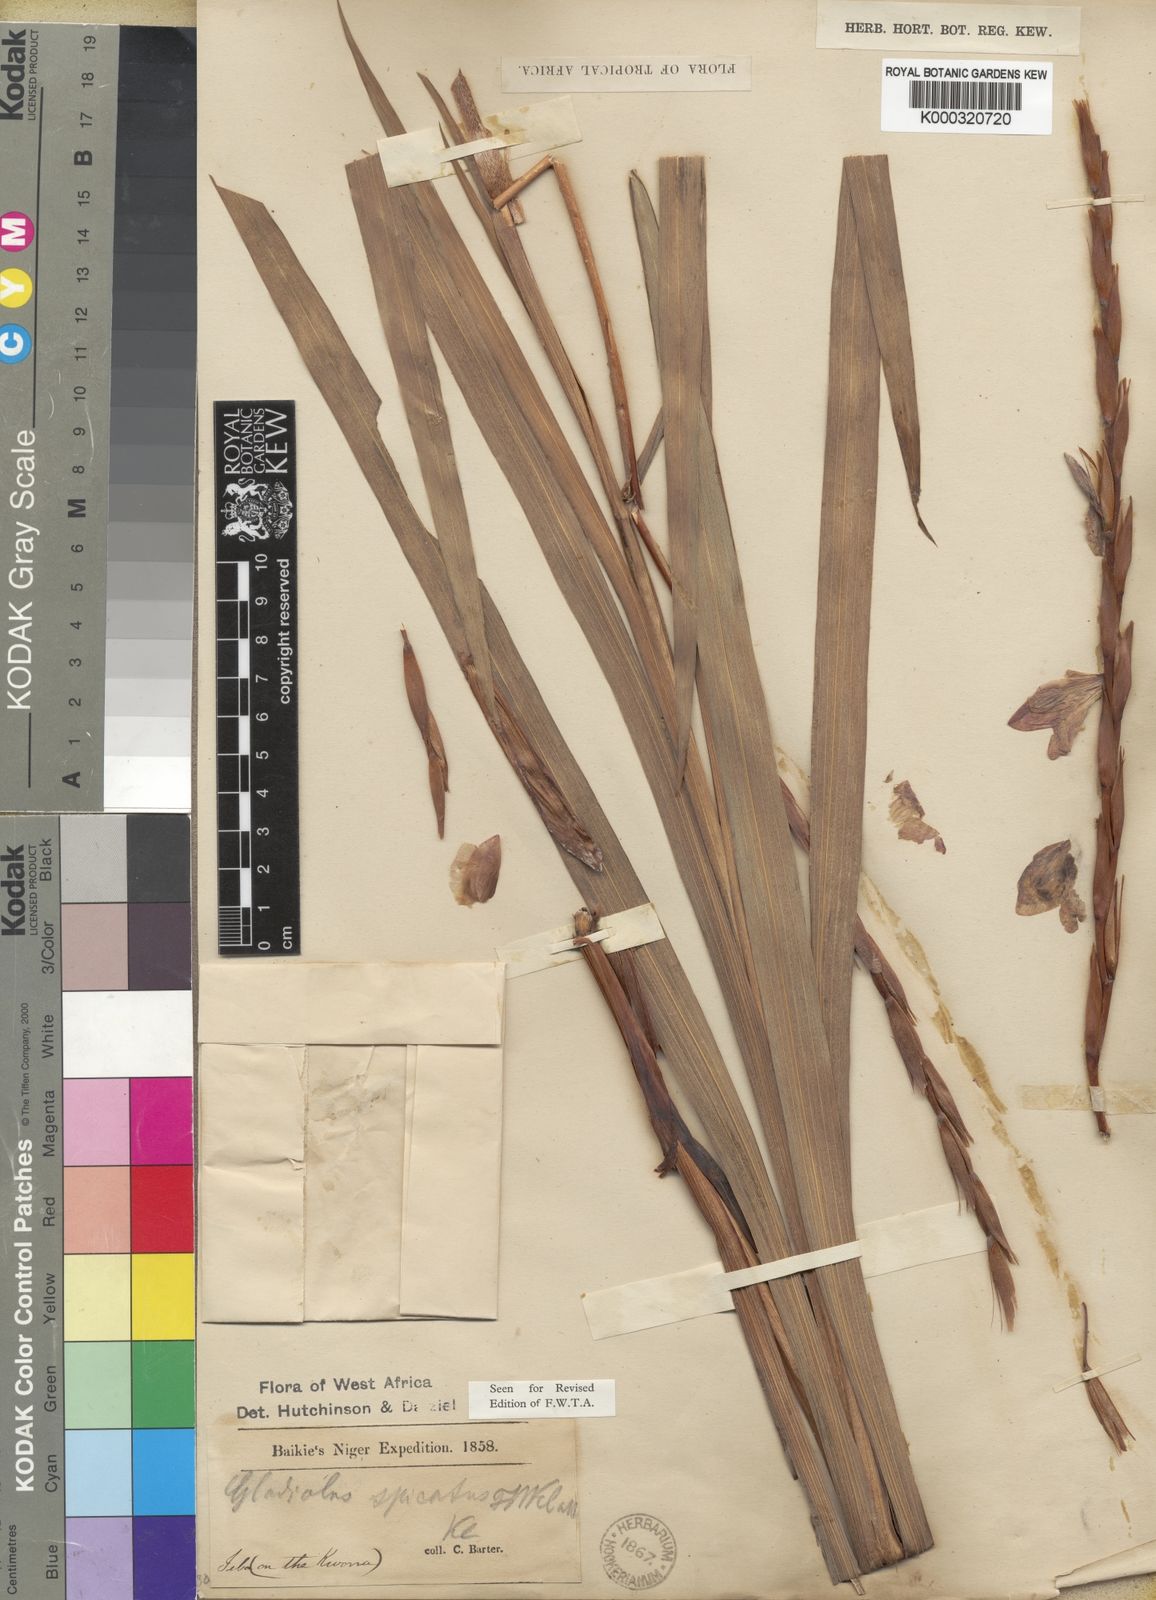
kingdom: Plantae
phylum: Tracheophyta
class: Liliopsida
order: Asparagales
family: Iridaceae
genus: Gladiolus
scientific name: Gladiolus gregarius
